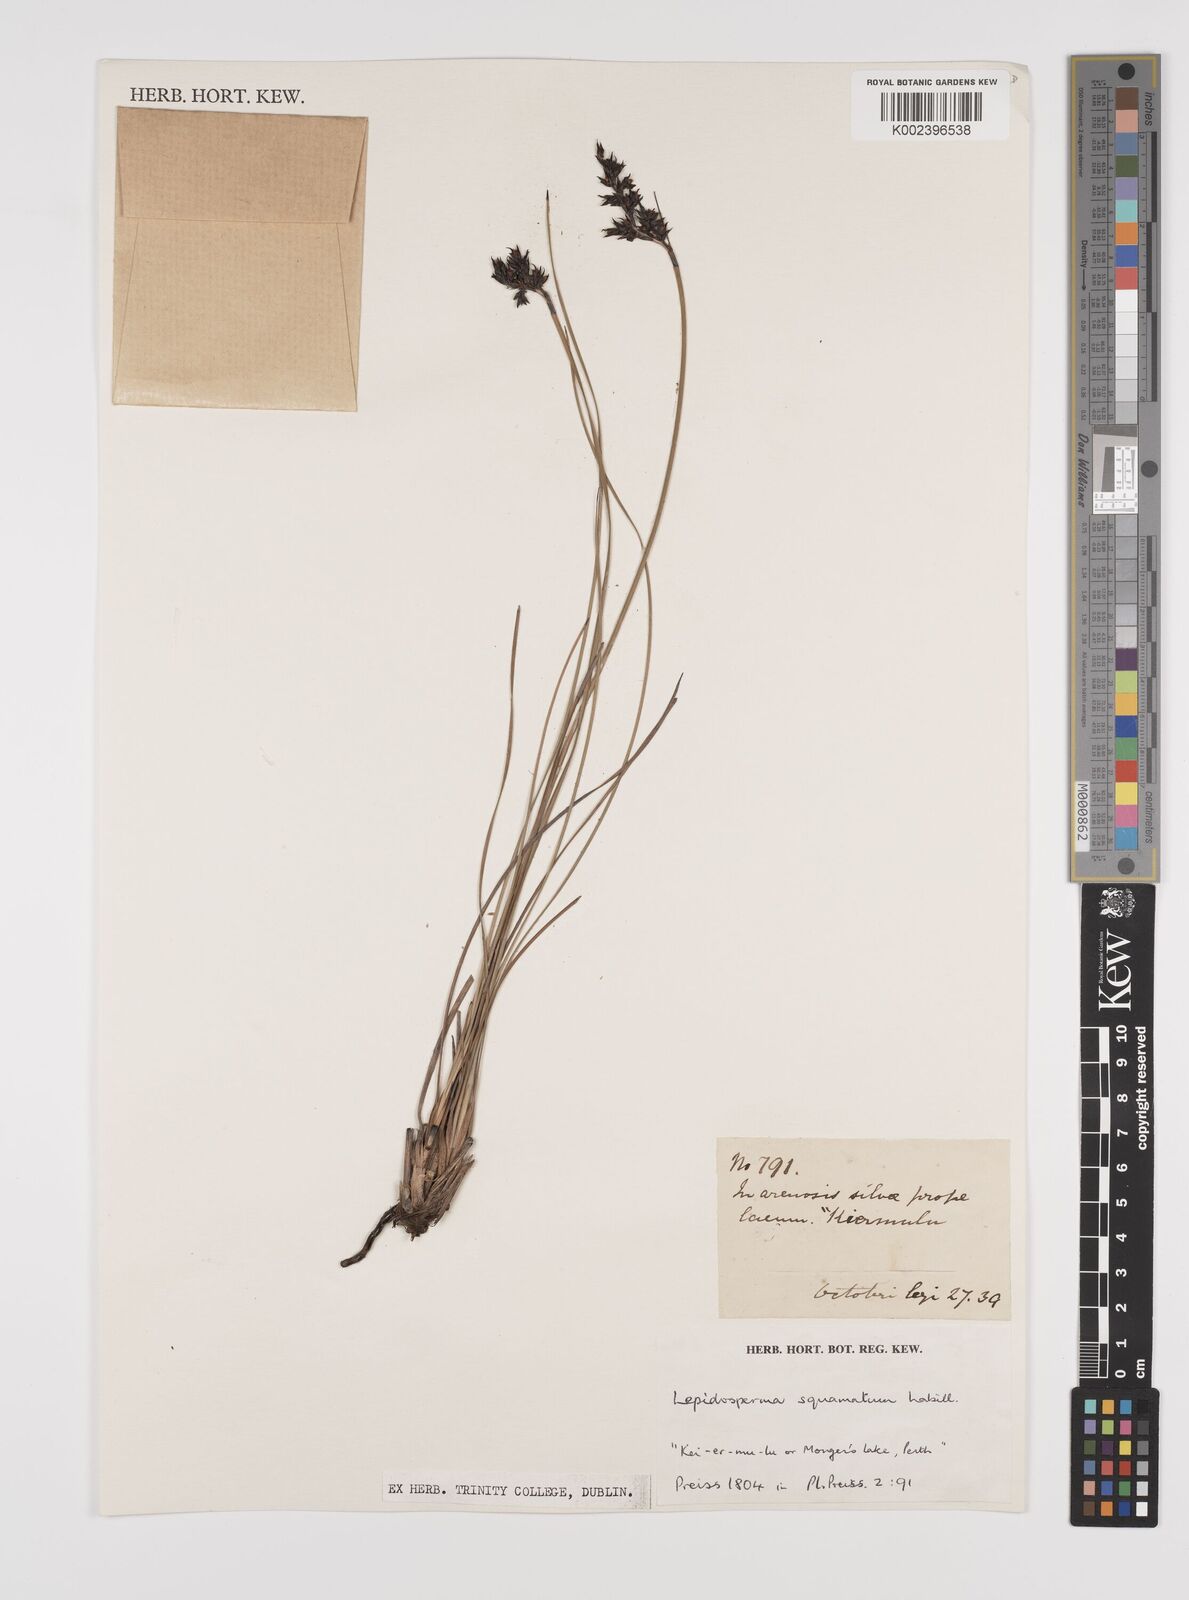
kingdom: Plantae
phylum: Tracheophyta
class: Liliopsida
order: Poales
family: Cyperaceae
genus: Lepidosperma
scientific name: Lepidosperma squamatum
